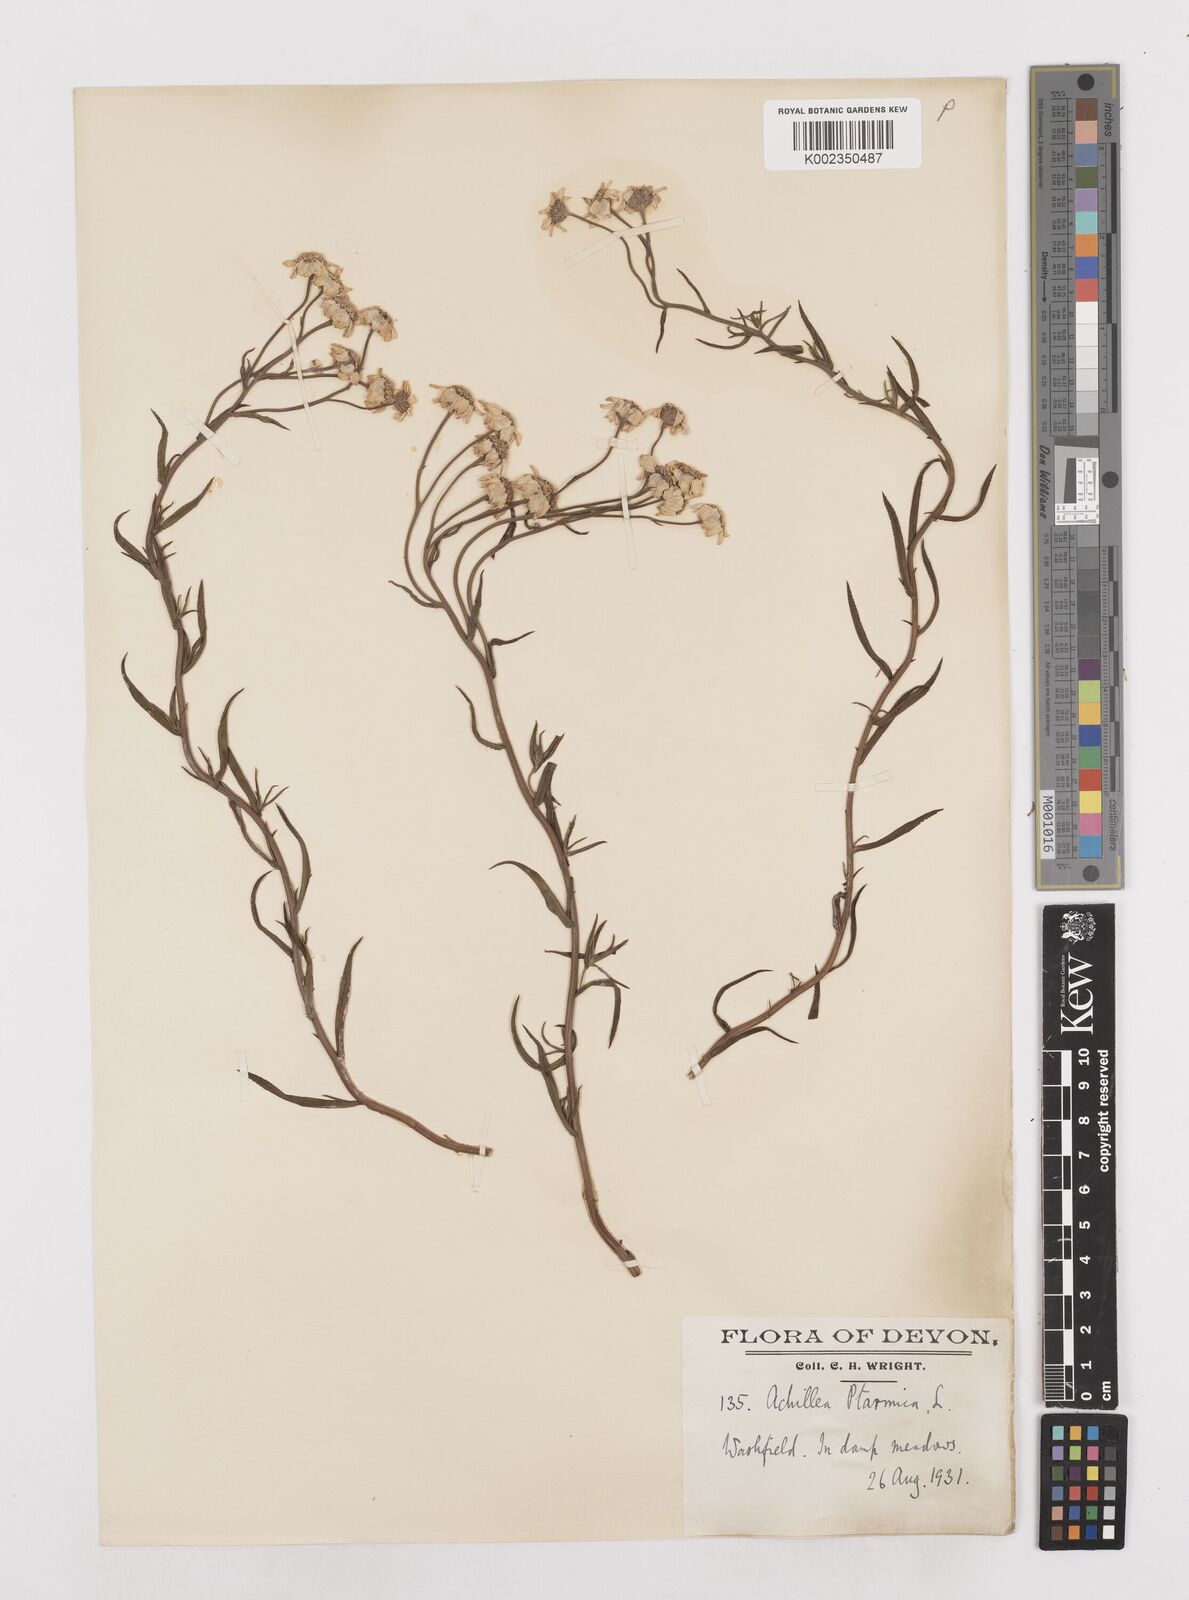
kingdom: Plantae
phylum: Tracheophyta
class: Magnoliopsida
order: Asterales
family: Asteraceae
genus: Achillea
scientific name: Achillea ptarmica
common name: Sneezeweed
